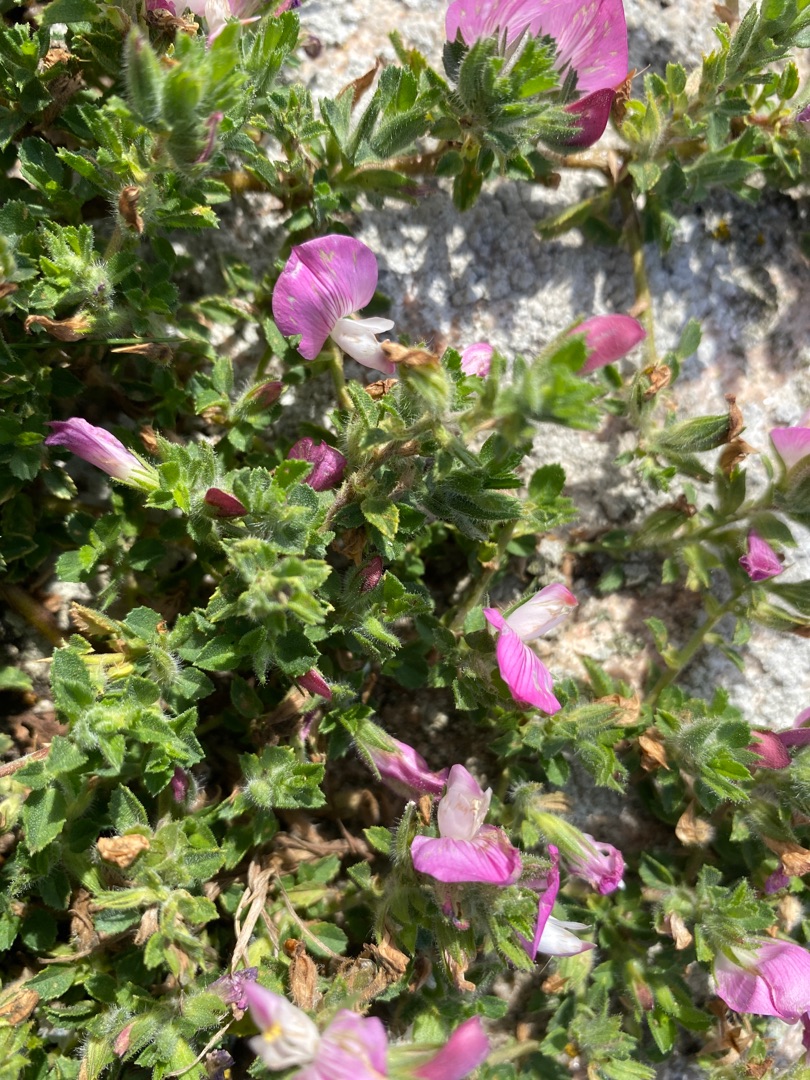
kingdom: Plantae
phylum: Tracheophyta
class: Magnoliopsida
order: Fabales
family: Fabaceae
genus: Ononis
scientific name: Ononis spinosa
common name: Mark-krageklo
